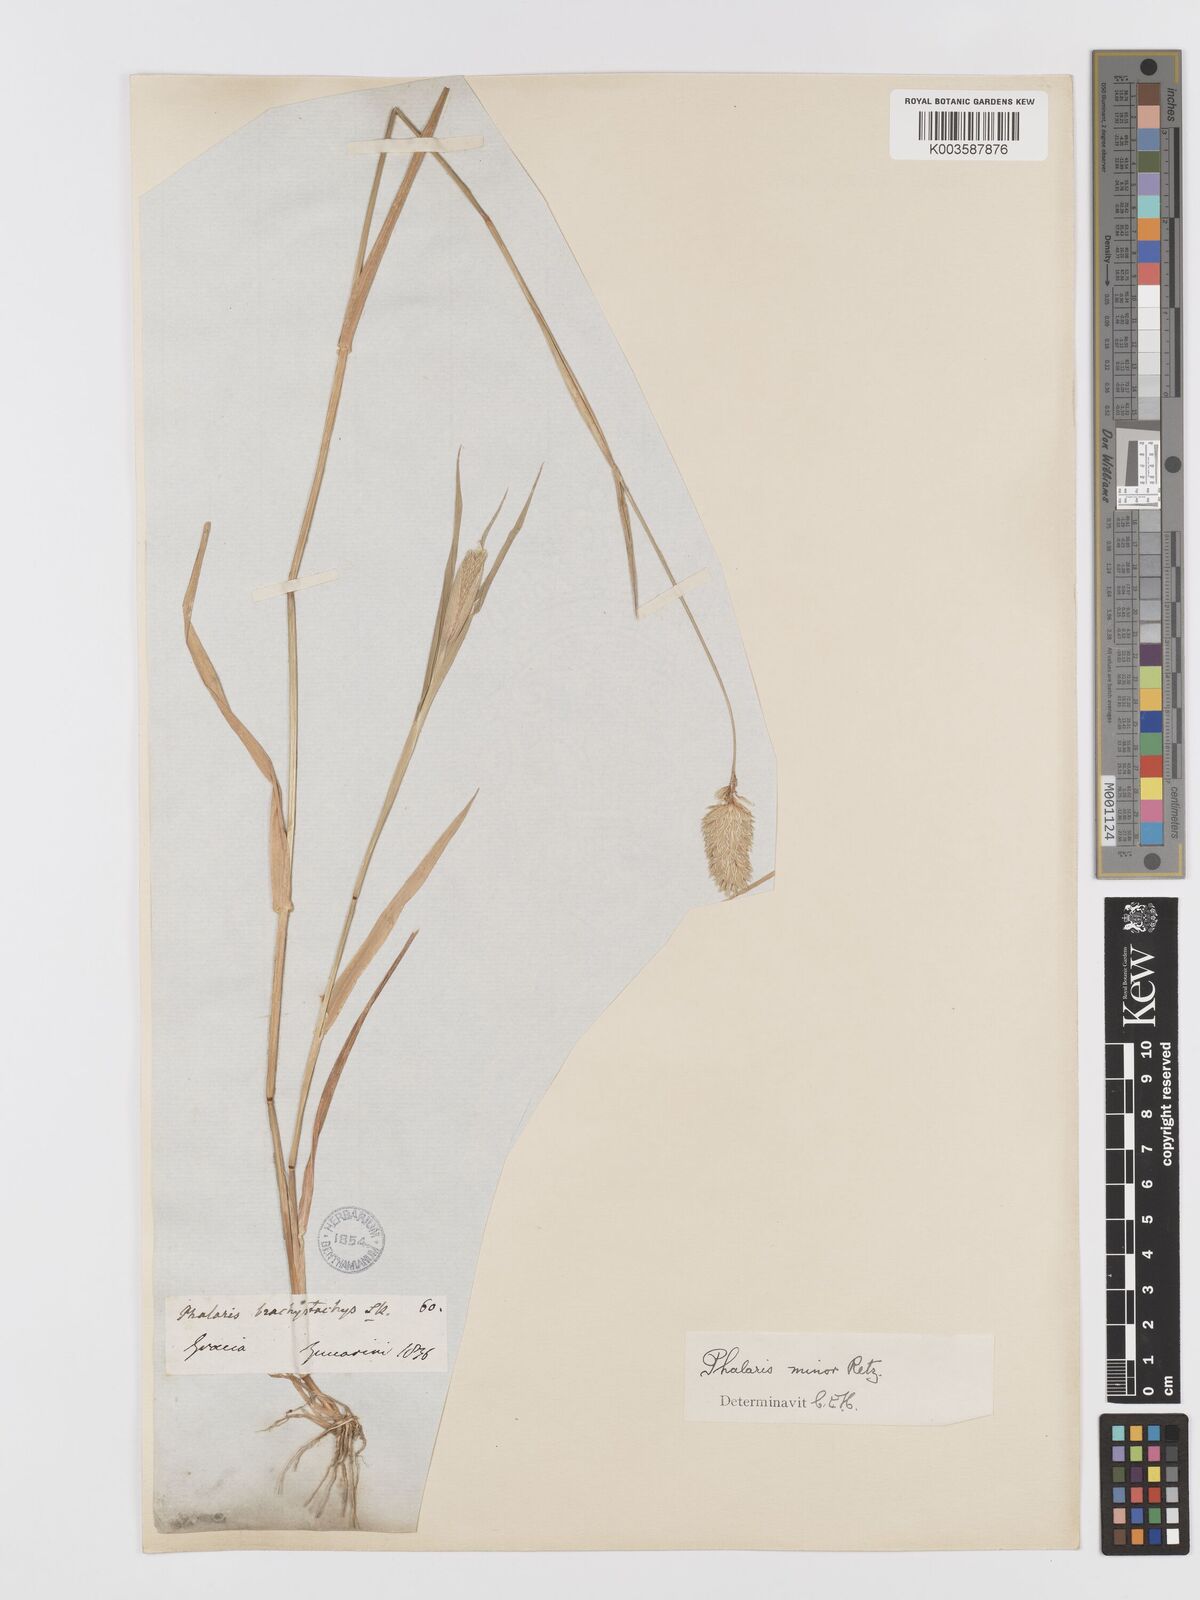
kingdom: Plantae
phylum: Tracheophyta
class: Liliopsida
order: Poales
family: Poaceae
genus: Phalaris
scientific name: Phalaris minor
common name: Littleseed canarygrass
